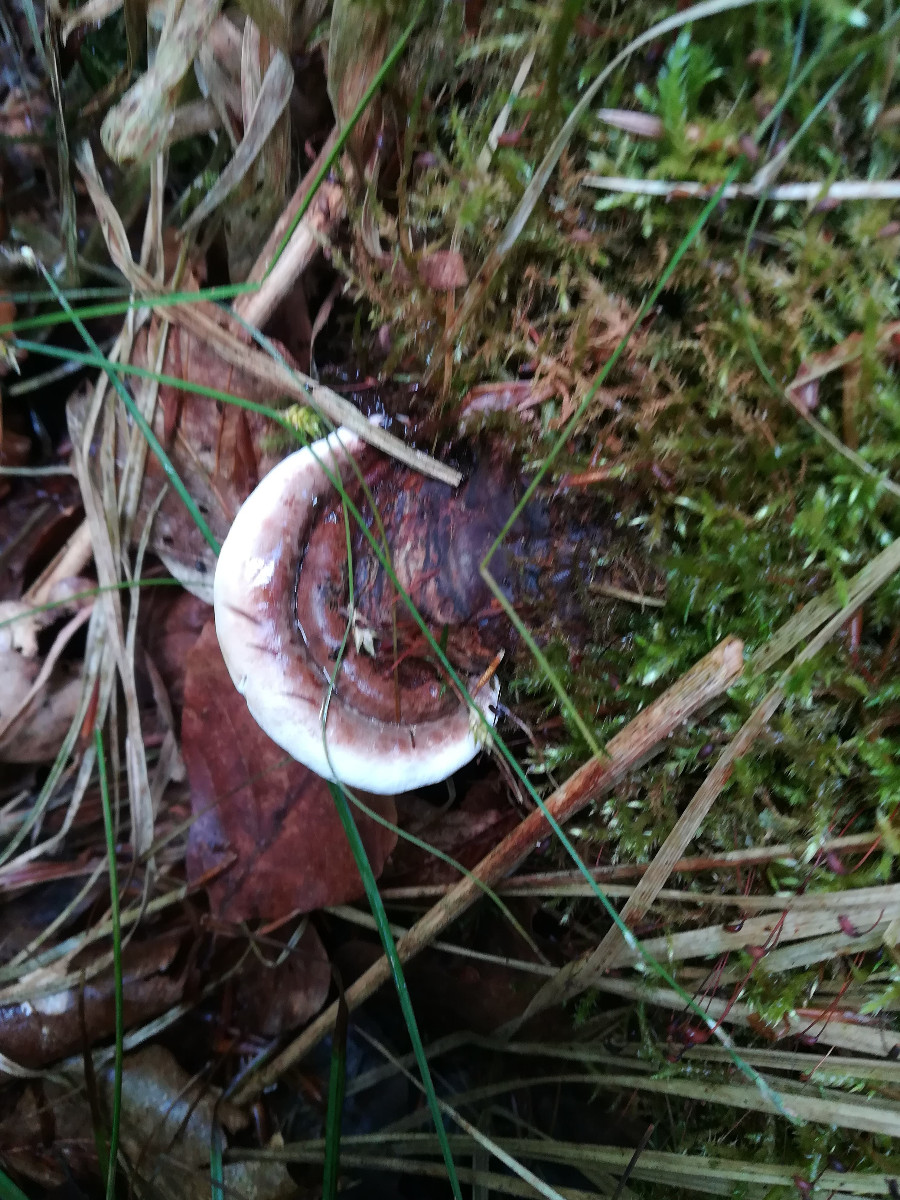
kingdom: Fungi
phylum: Basidiomycota
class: Agaricomycetes
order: Polyporales
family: Polyporaceae
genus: Ganoderma
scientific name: Ganoderma applanatum
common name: flad lakporesvamp
